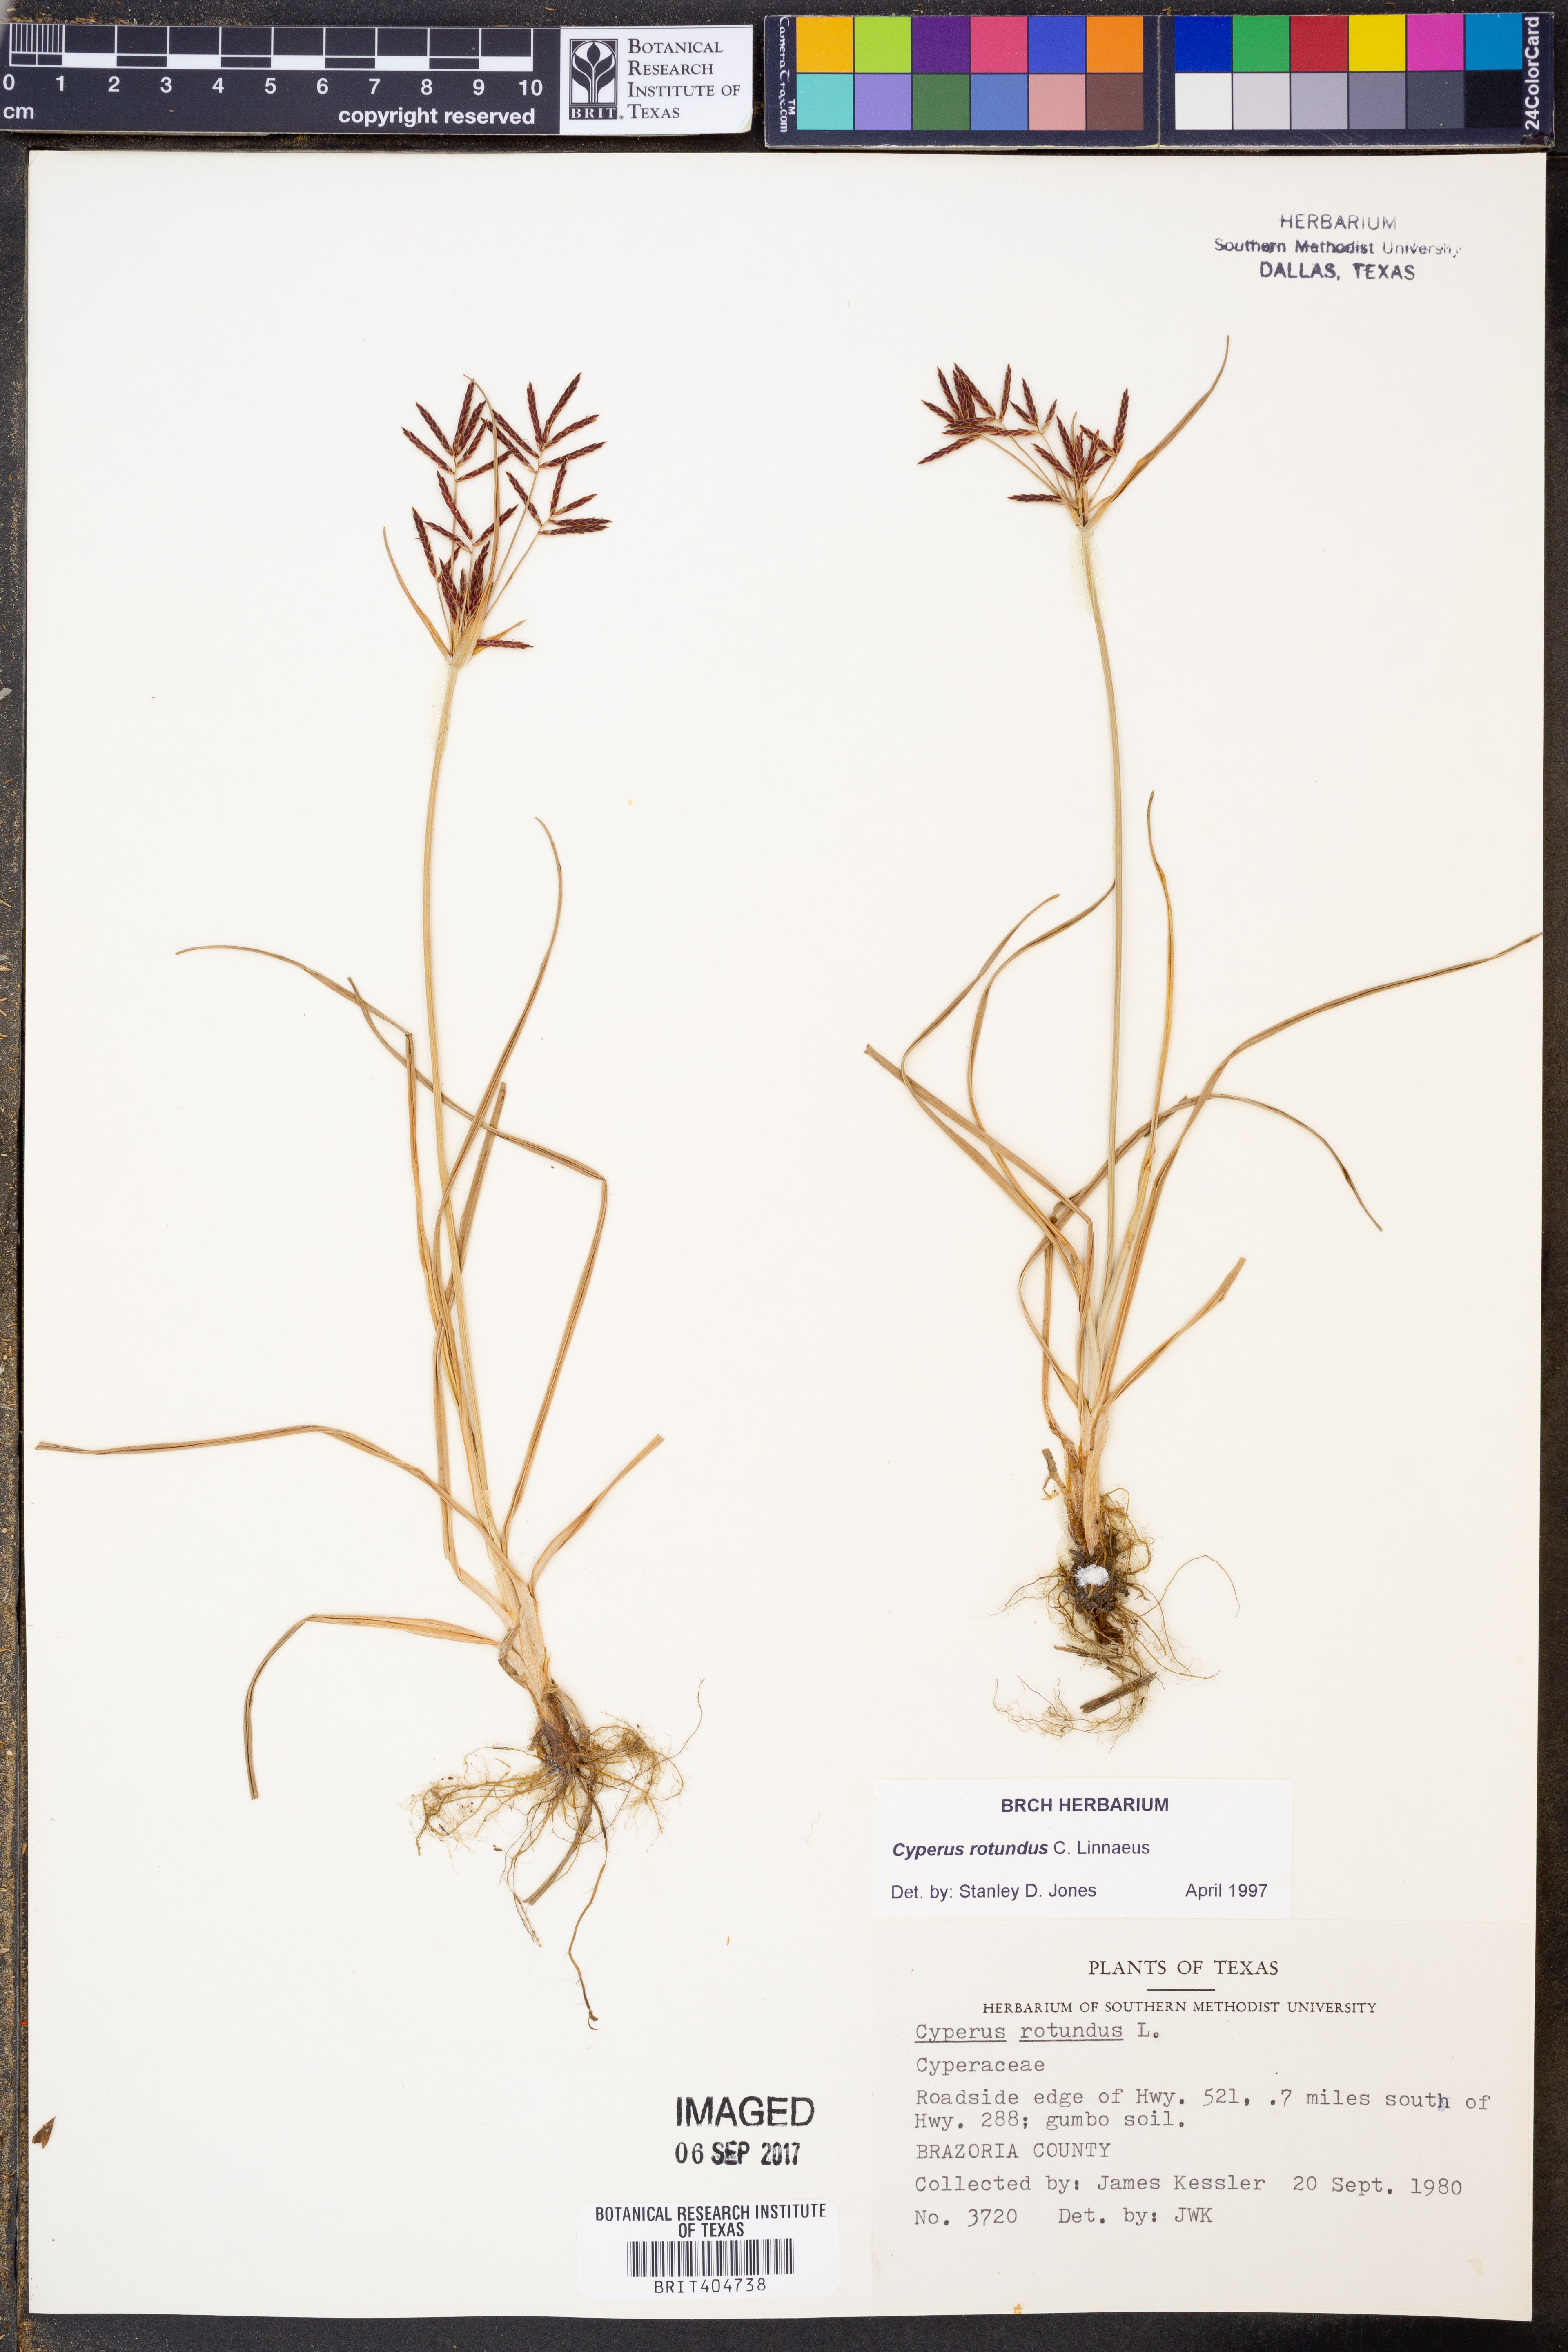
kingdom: Plantae
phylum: Tracheophyta
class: Liliopsida
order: Poales
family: Cyperaceae
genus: Cyperus
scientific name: Cyperus rotundus
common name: Nutgrass
